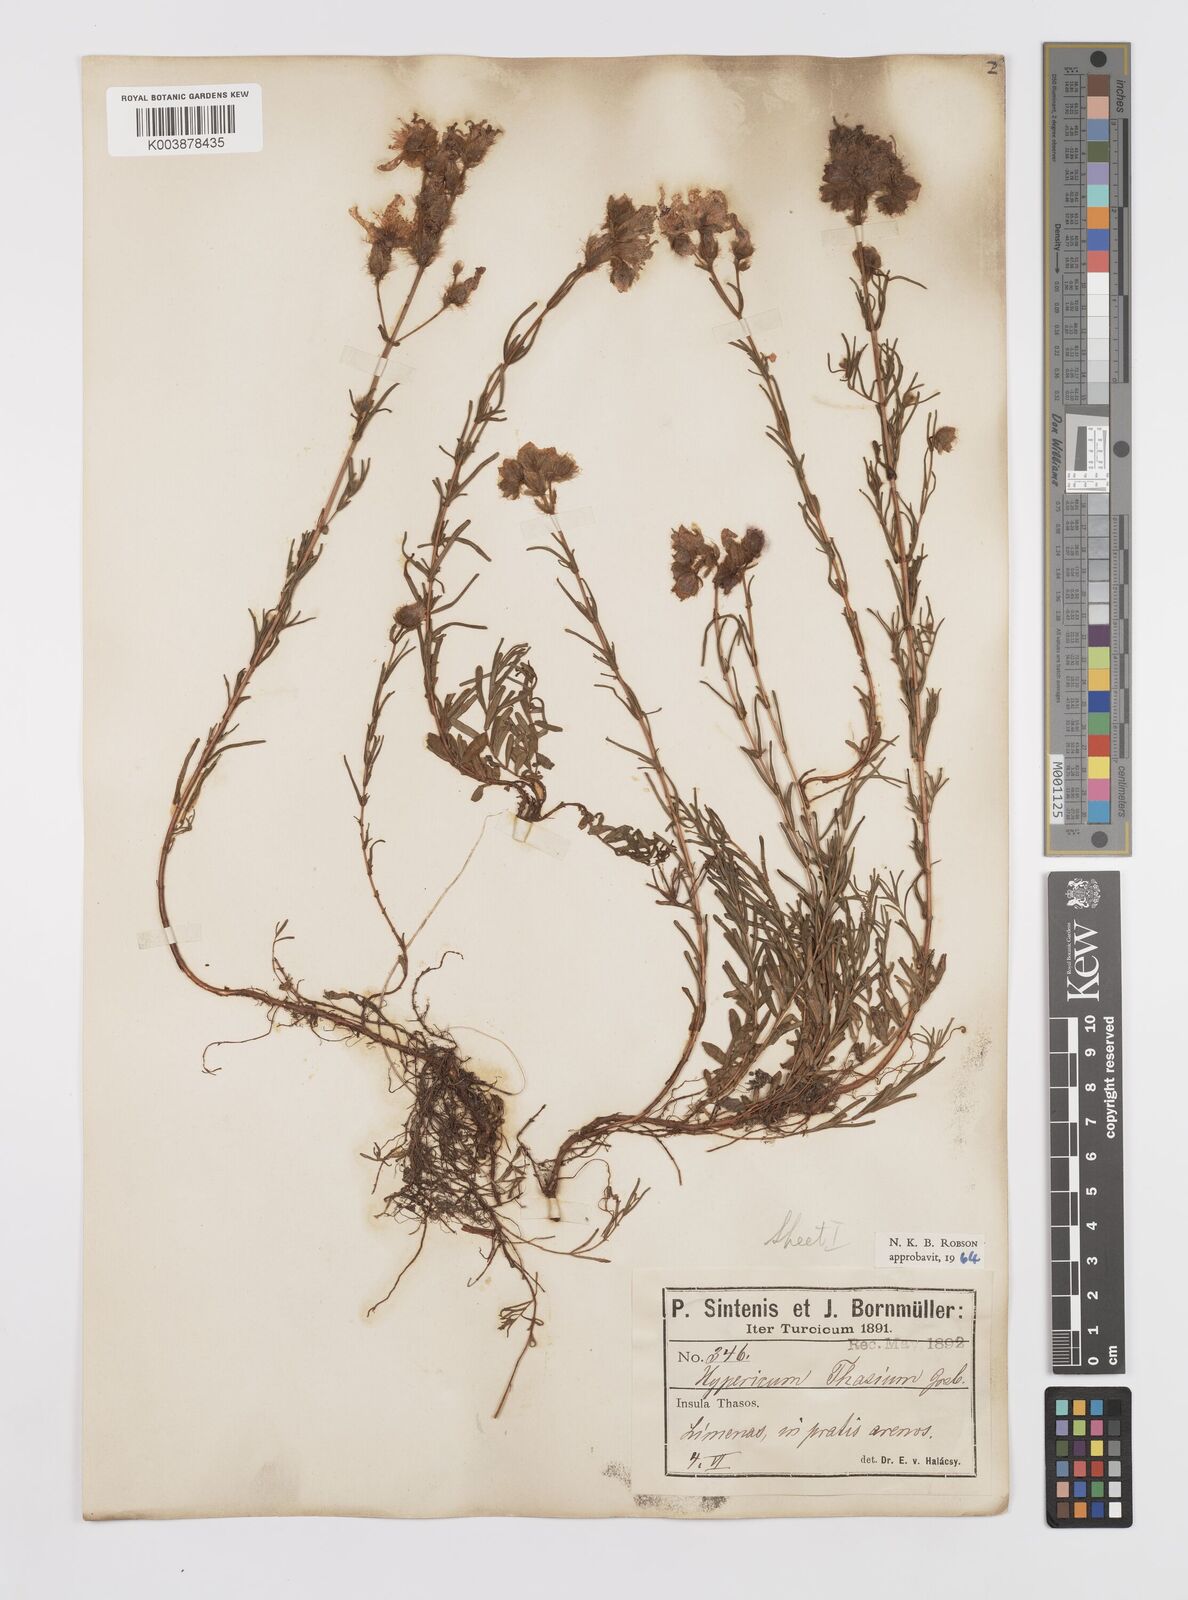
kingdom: Plantae
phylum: Tracheophyta
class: Magnoliopsida
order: Malpighiales
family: Hypericaceae
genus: Hypericum
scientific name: Hypericum thasium
